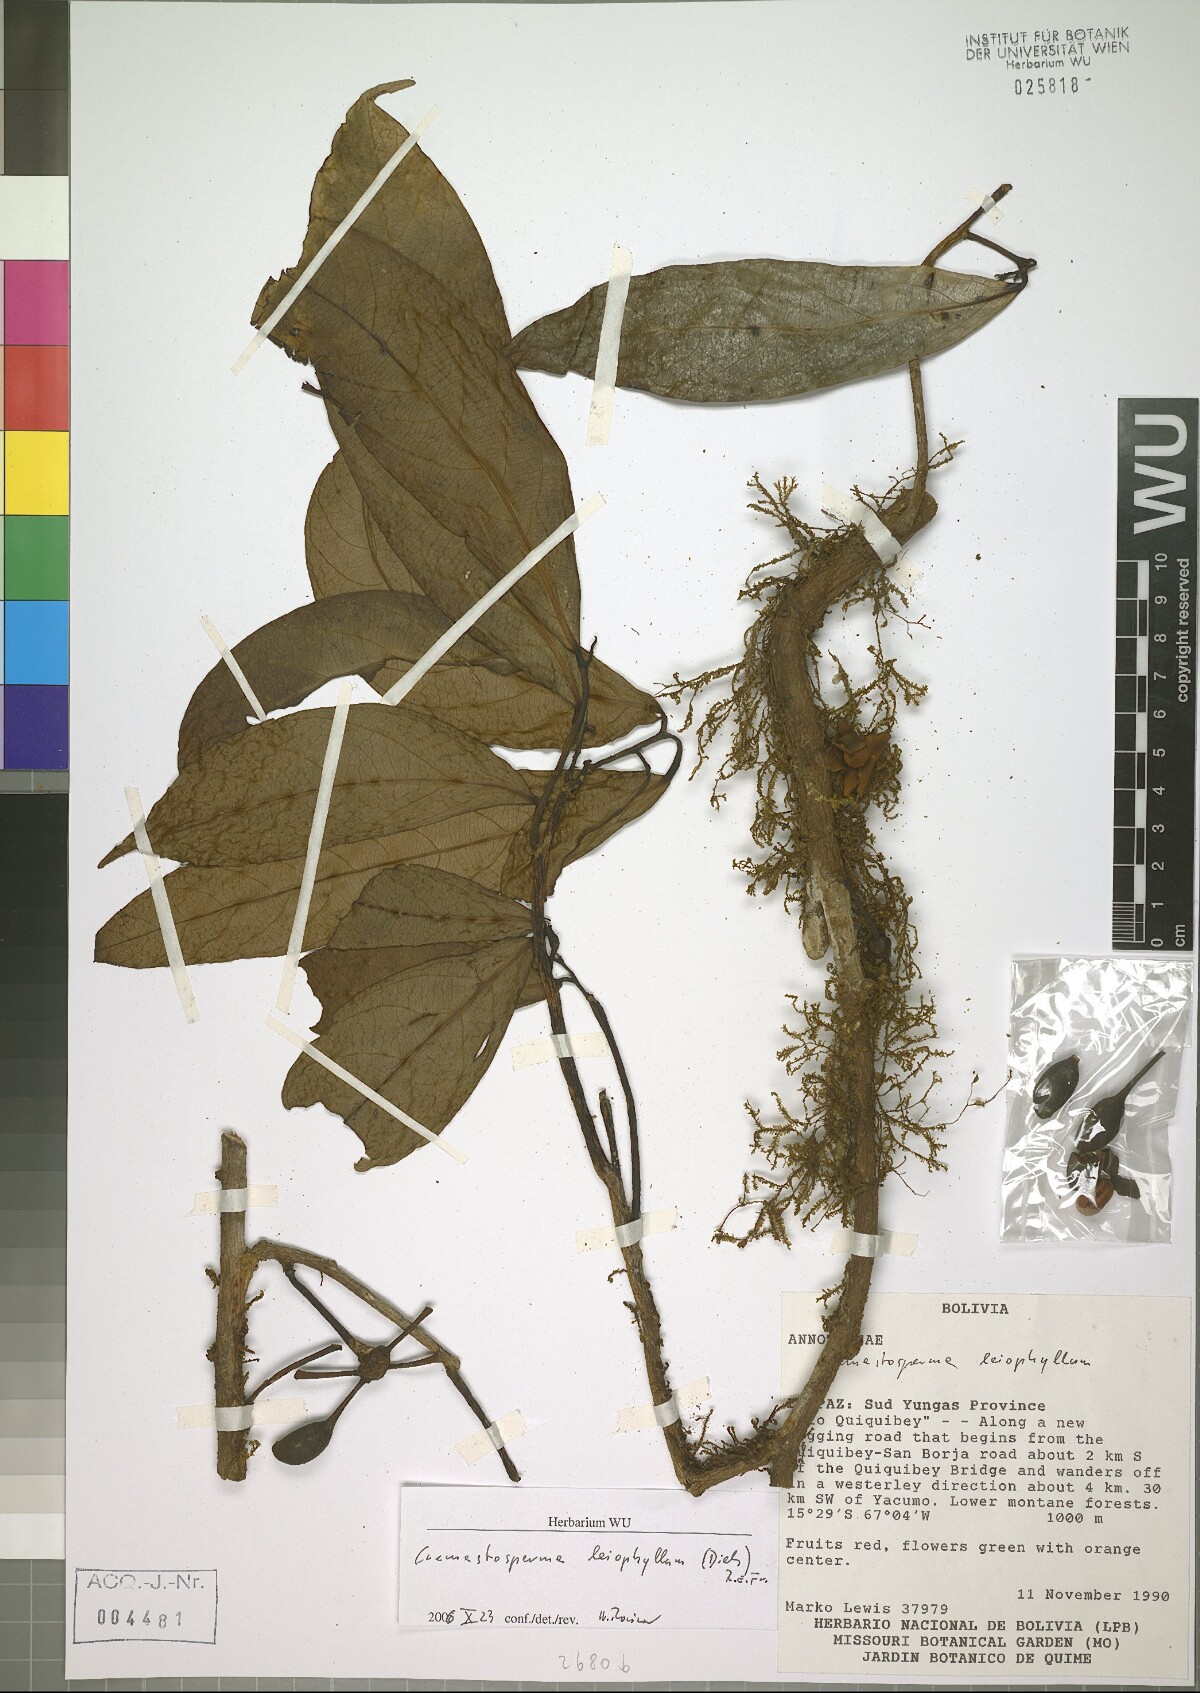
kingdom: Plantae
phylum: Tracheophyta
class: Magnoliopsida
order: Magnoliales
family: Annonaceae
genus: Cremastosperma
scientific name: Cremastosperma leiophyllum
